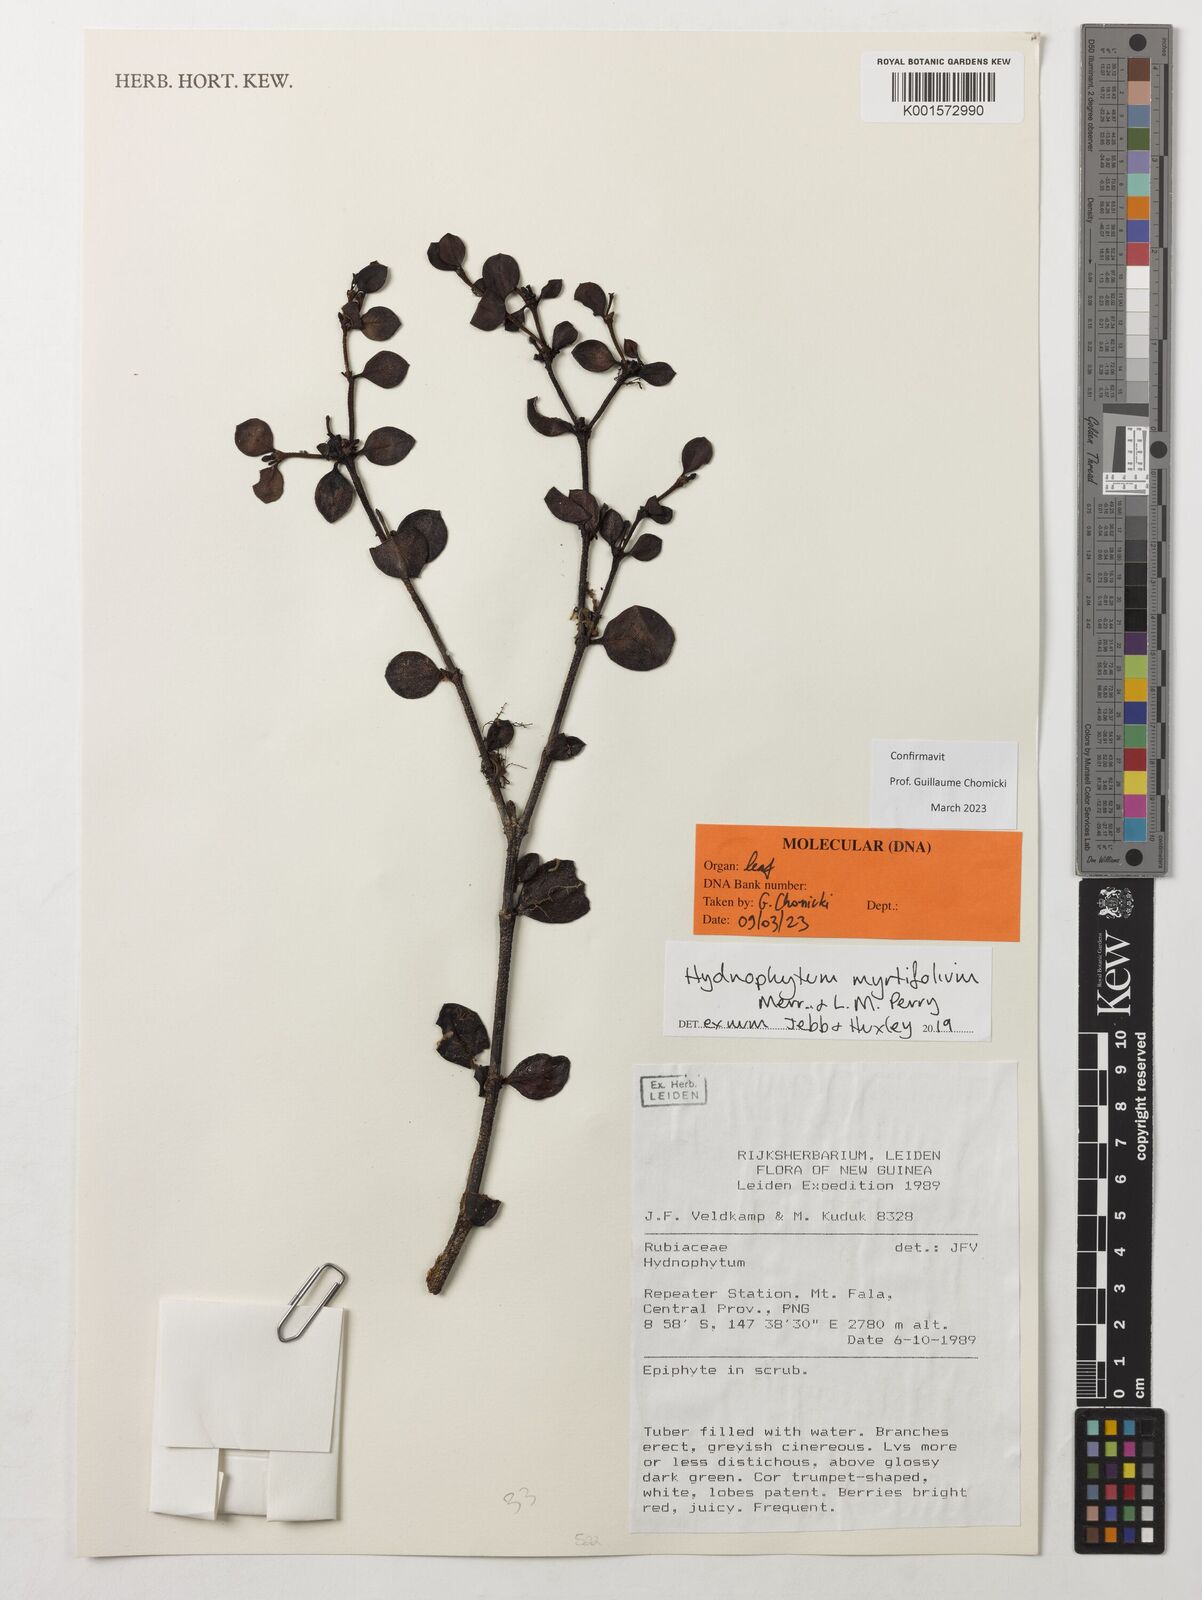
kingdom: Plantae
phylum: Tracheophyta
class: Magnoliopsida
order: Gentianales
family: Rubiaceae
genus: Hydnophytum
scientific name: Hydnophytum myrtifolium
